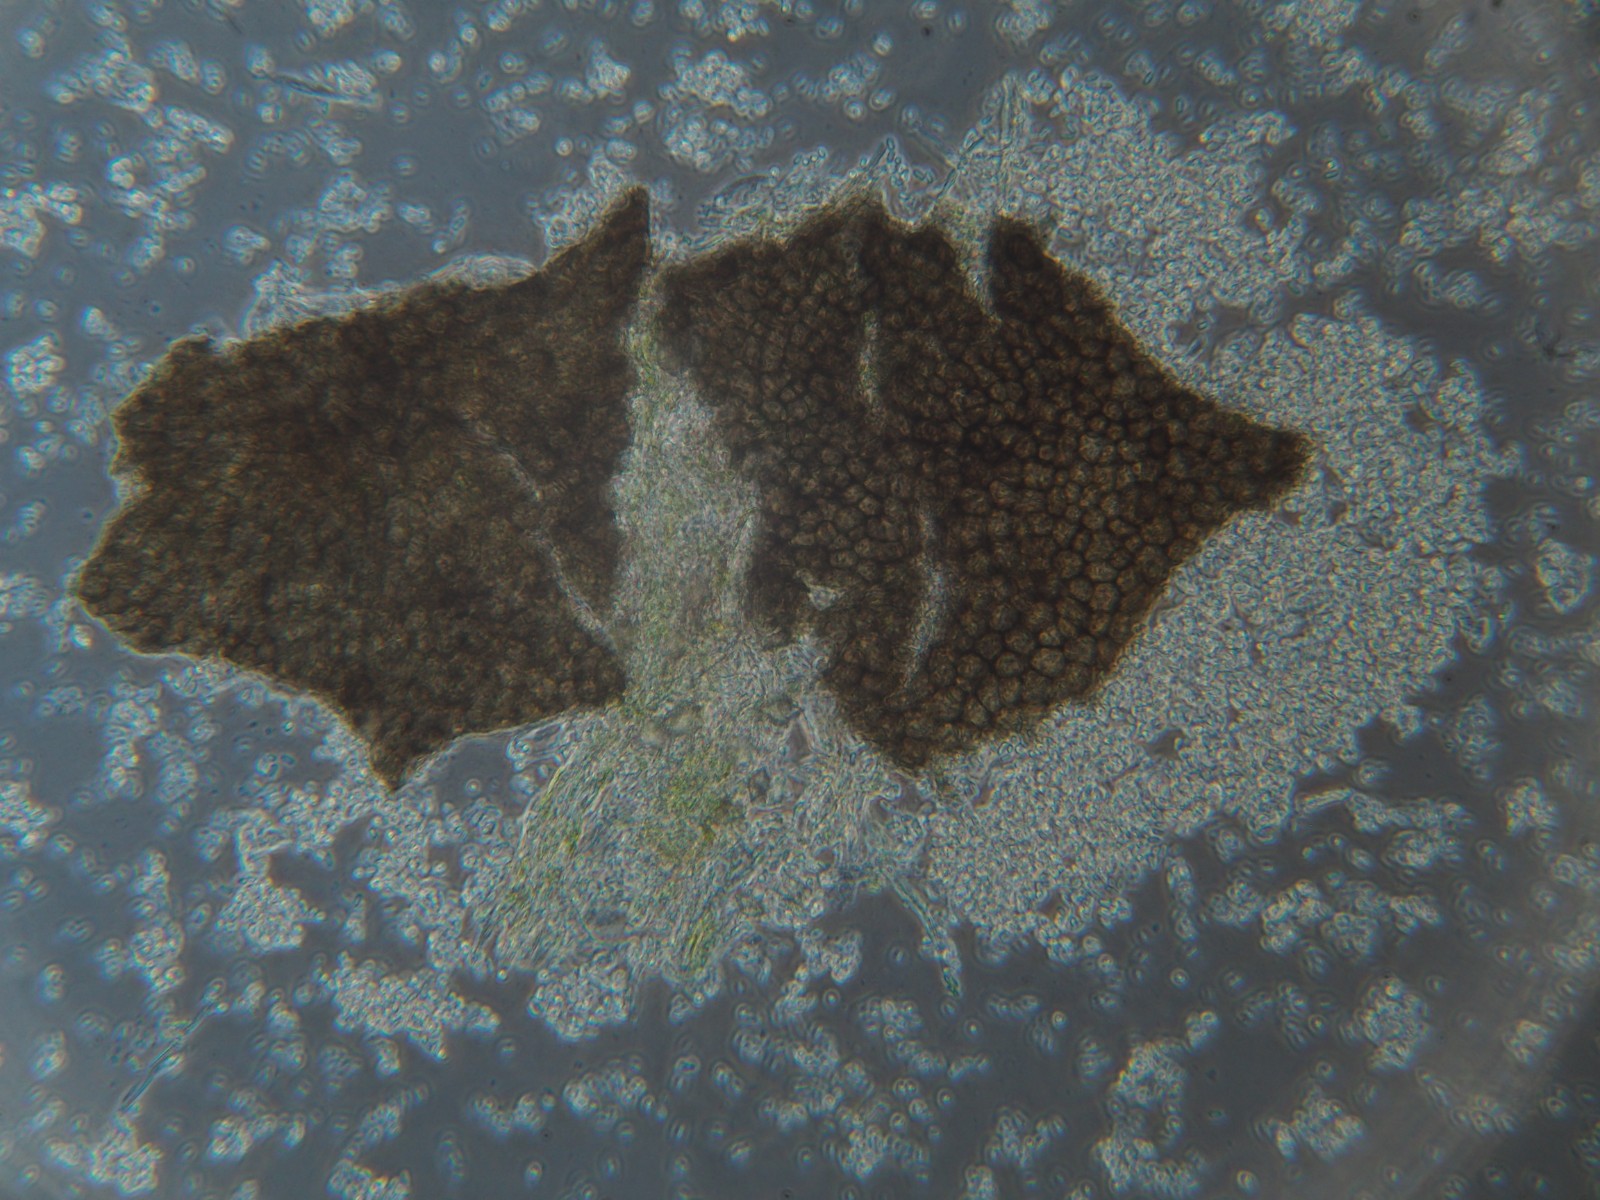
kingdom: Fungi
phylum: Ascomycota
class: Dothideomycetes
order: Pleosporales
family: Leptosphaeriaceae
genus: Leptosphaeria
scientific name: Leptosphaeria acuta
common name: spids kulkegle
